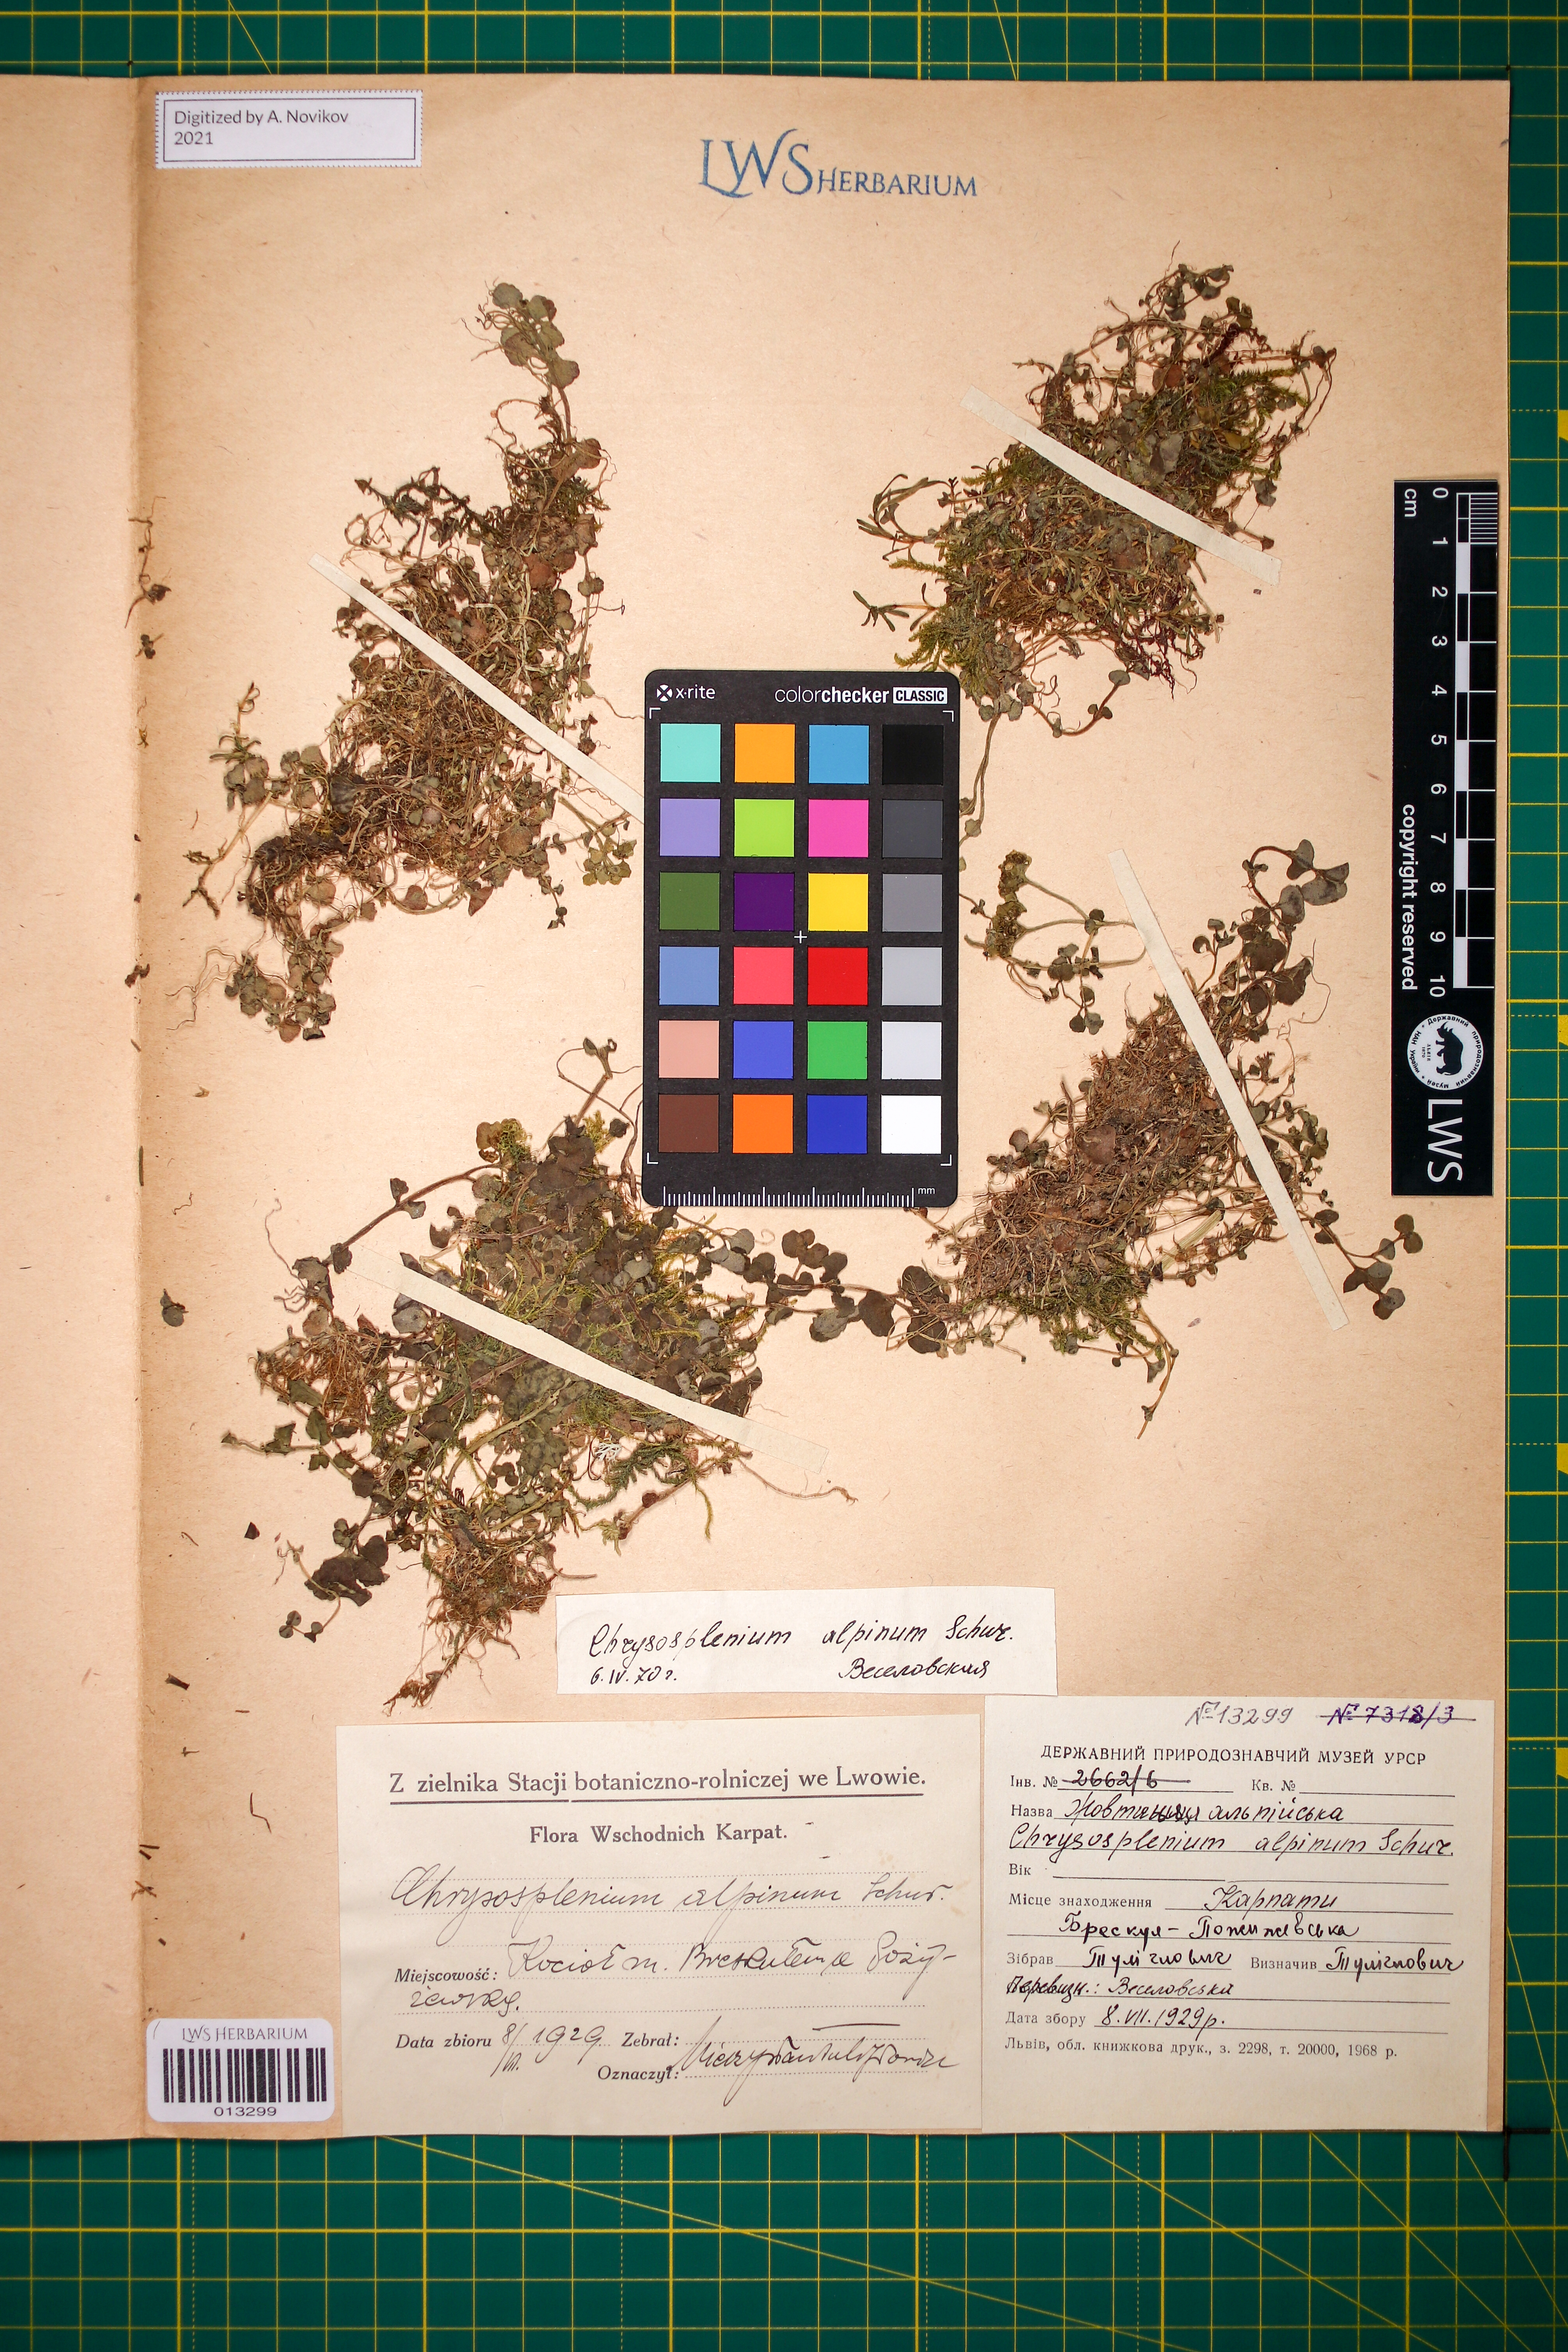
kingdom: Plantae
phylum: Tracheophyta
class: Magnoliopsida
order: Saxifragales
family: Saxifragaceae
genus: Chrysosplenium
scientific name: Chrysosplenium alpinum
